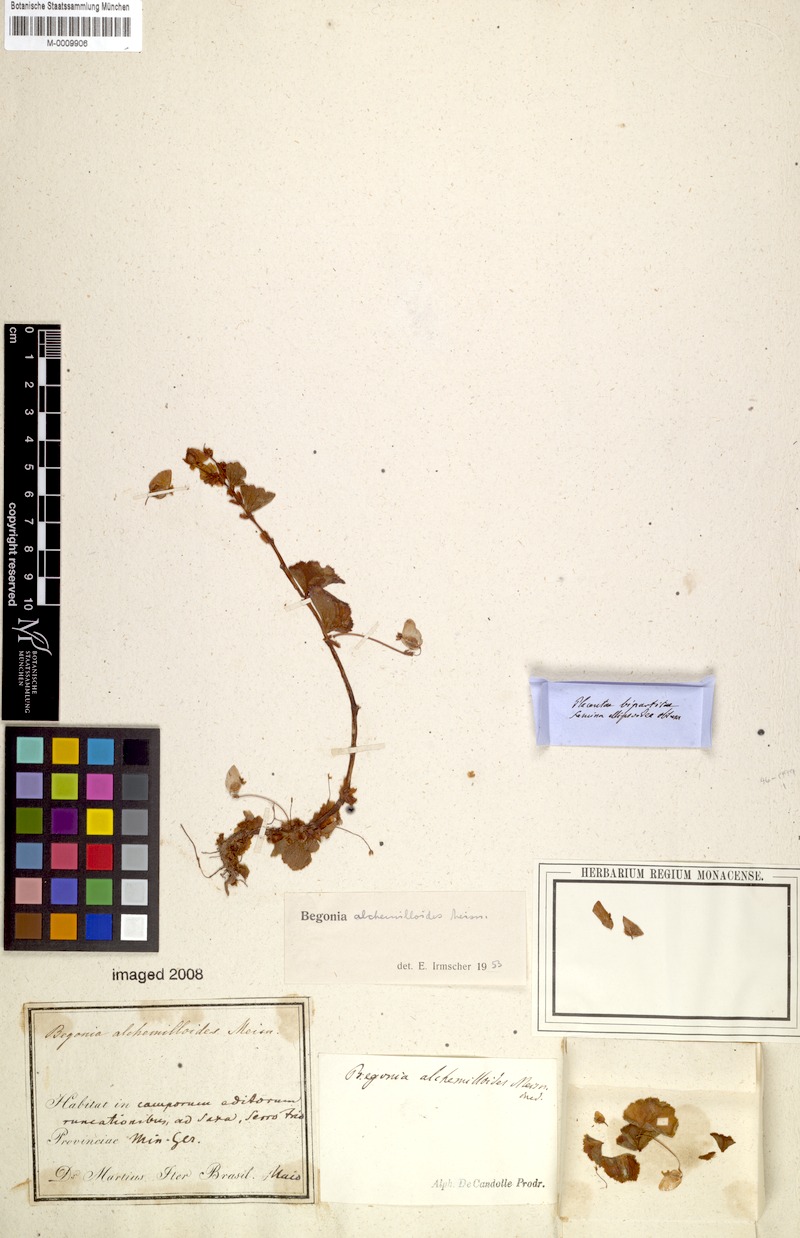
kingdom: Plantae
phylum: Tracheophyta
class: Magnoliopsida
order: Cucurbitales
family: Begoniaceae
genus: Begonia
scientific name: Begonia alchemilloides
